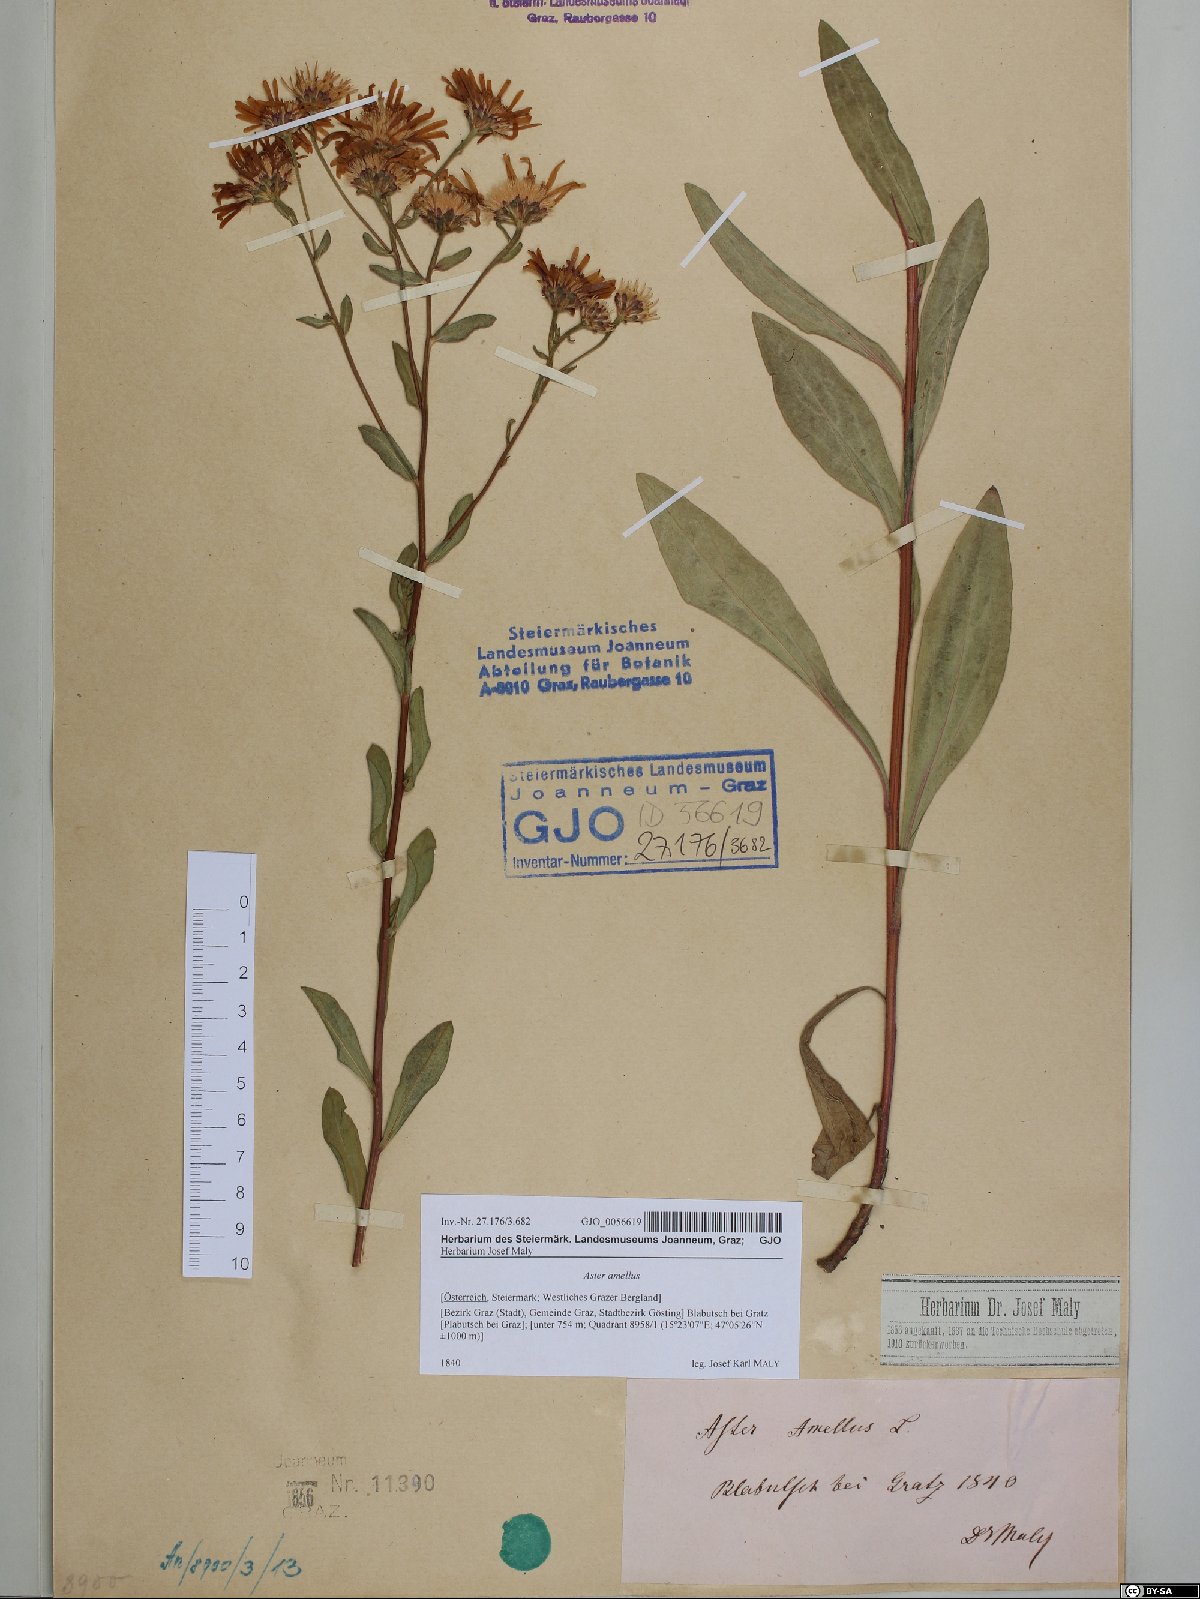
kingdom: Plantae
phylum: Tracheophyta
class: Magnoliopsida
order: Asterales
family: Asteraceae
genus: Aster
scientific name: Aster amellus
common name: European michaelmas daisy
